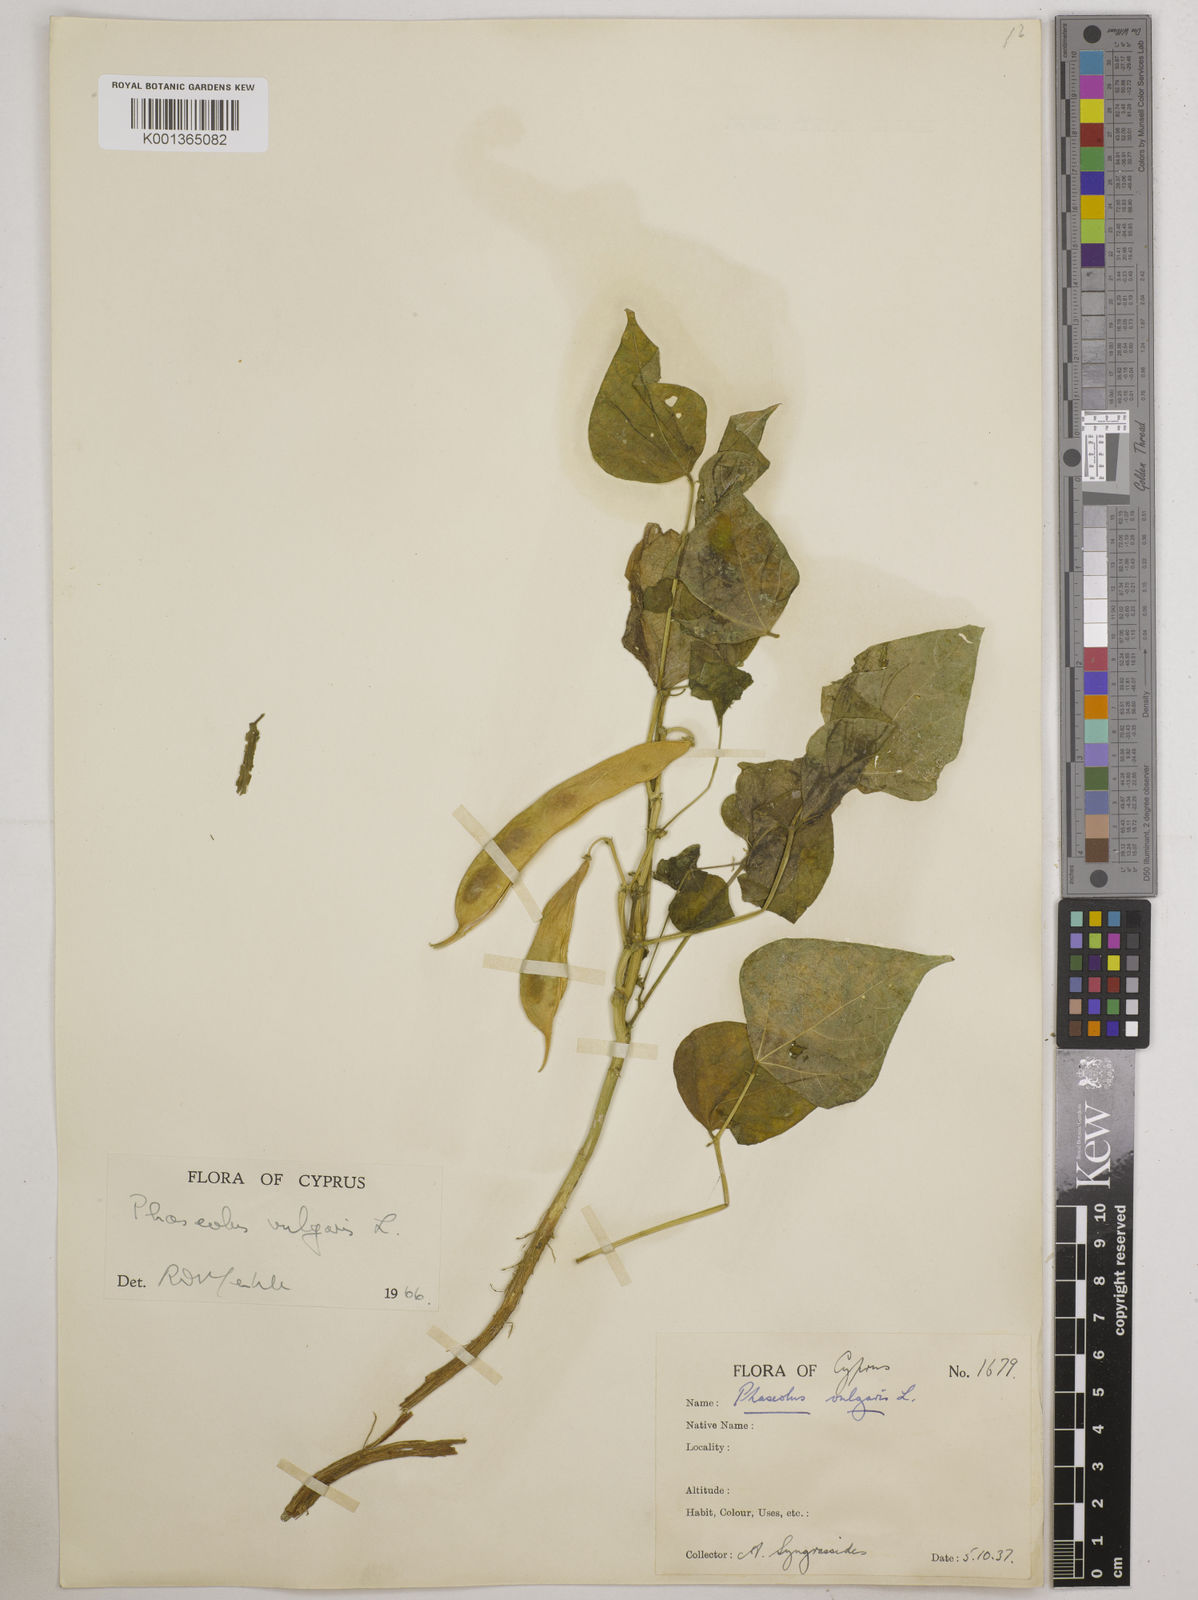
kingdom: Plantae
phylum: Tracheophyta
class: Magnoliopsida
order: Fabales
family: Fabaceae
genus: Phaseolus
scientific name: Phaseolus vulgaris
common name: Bean
